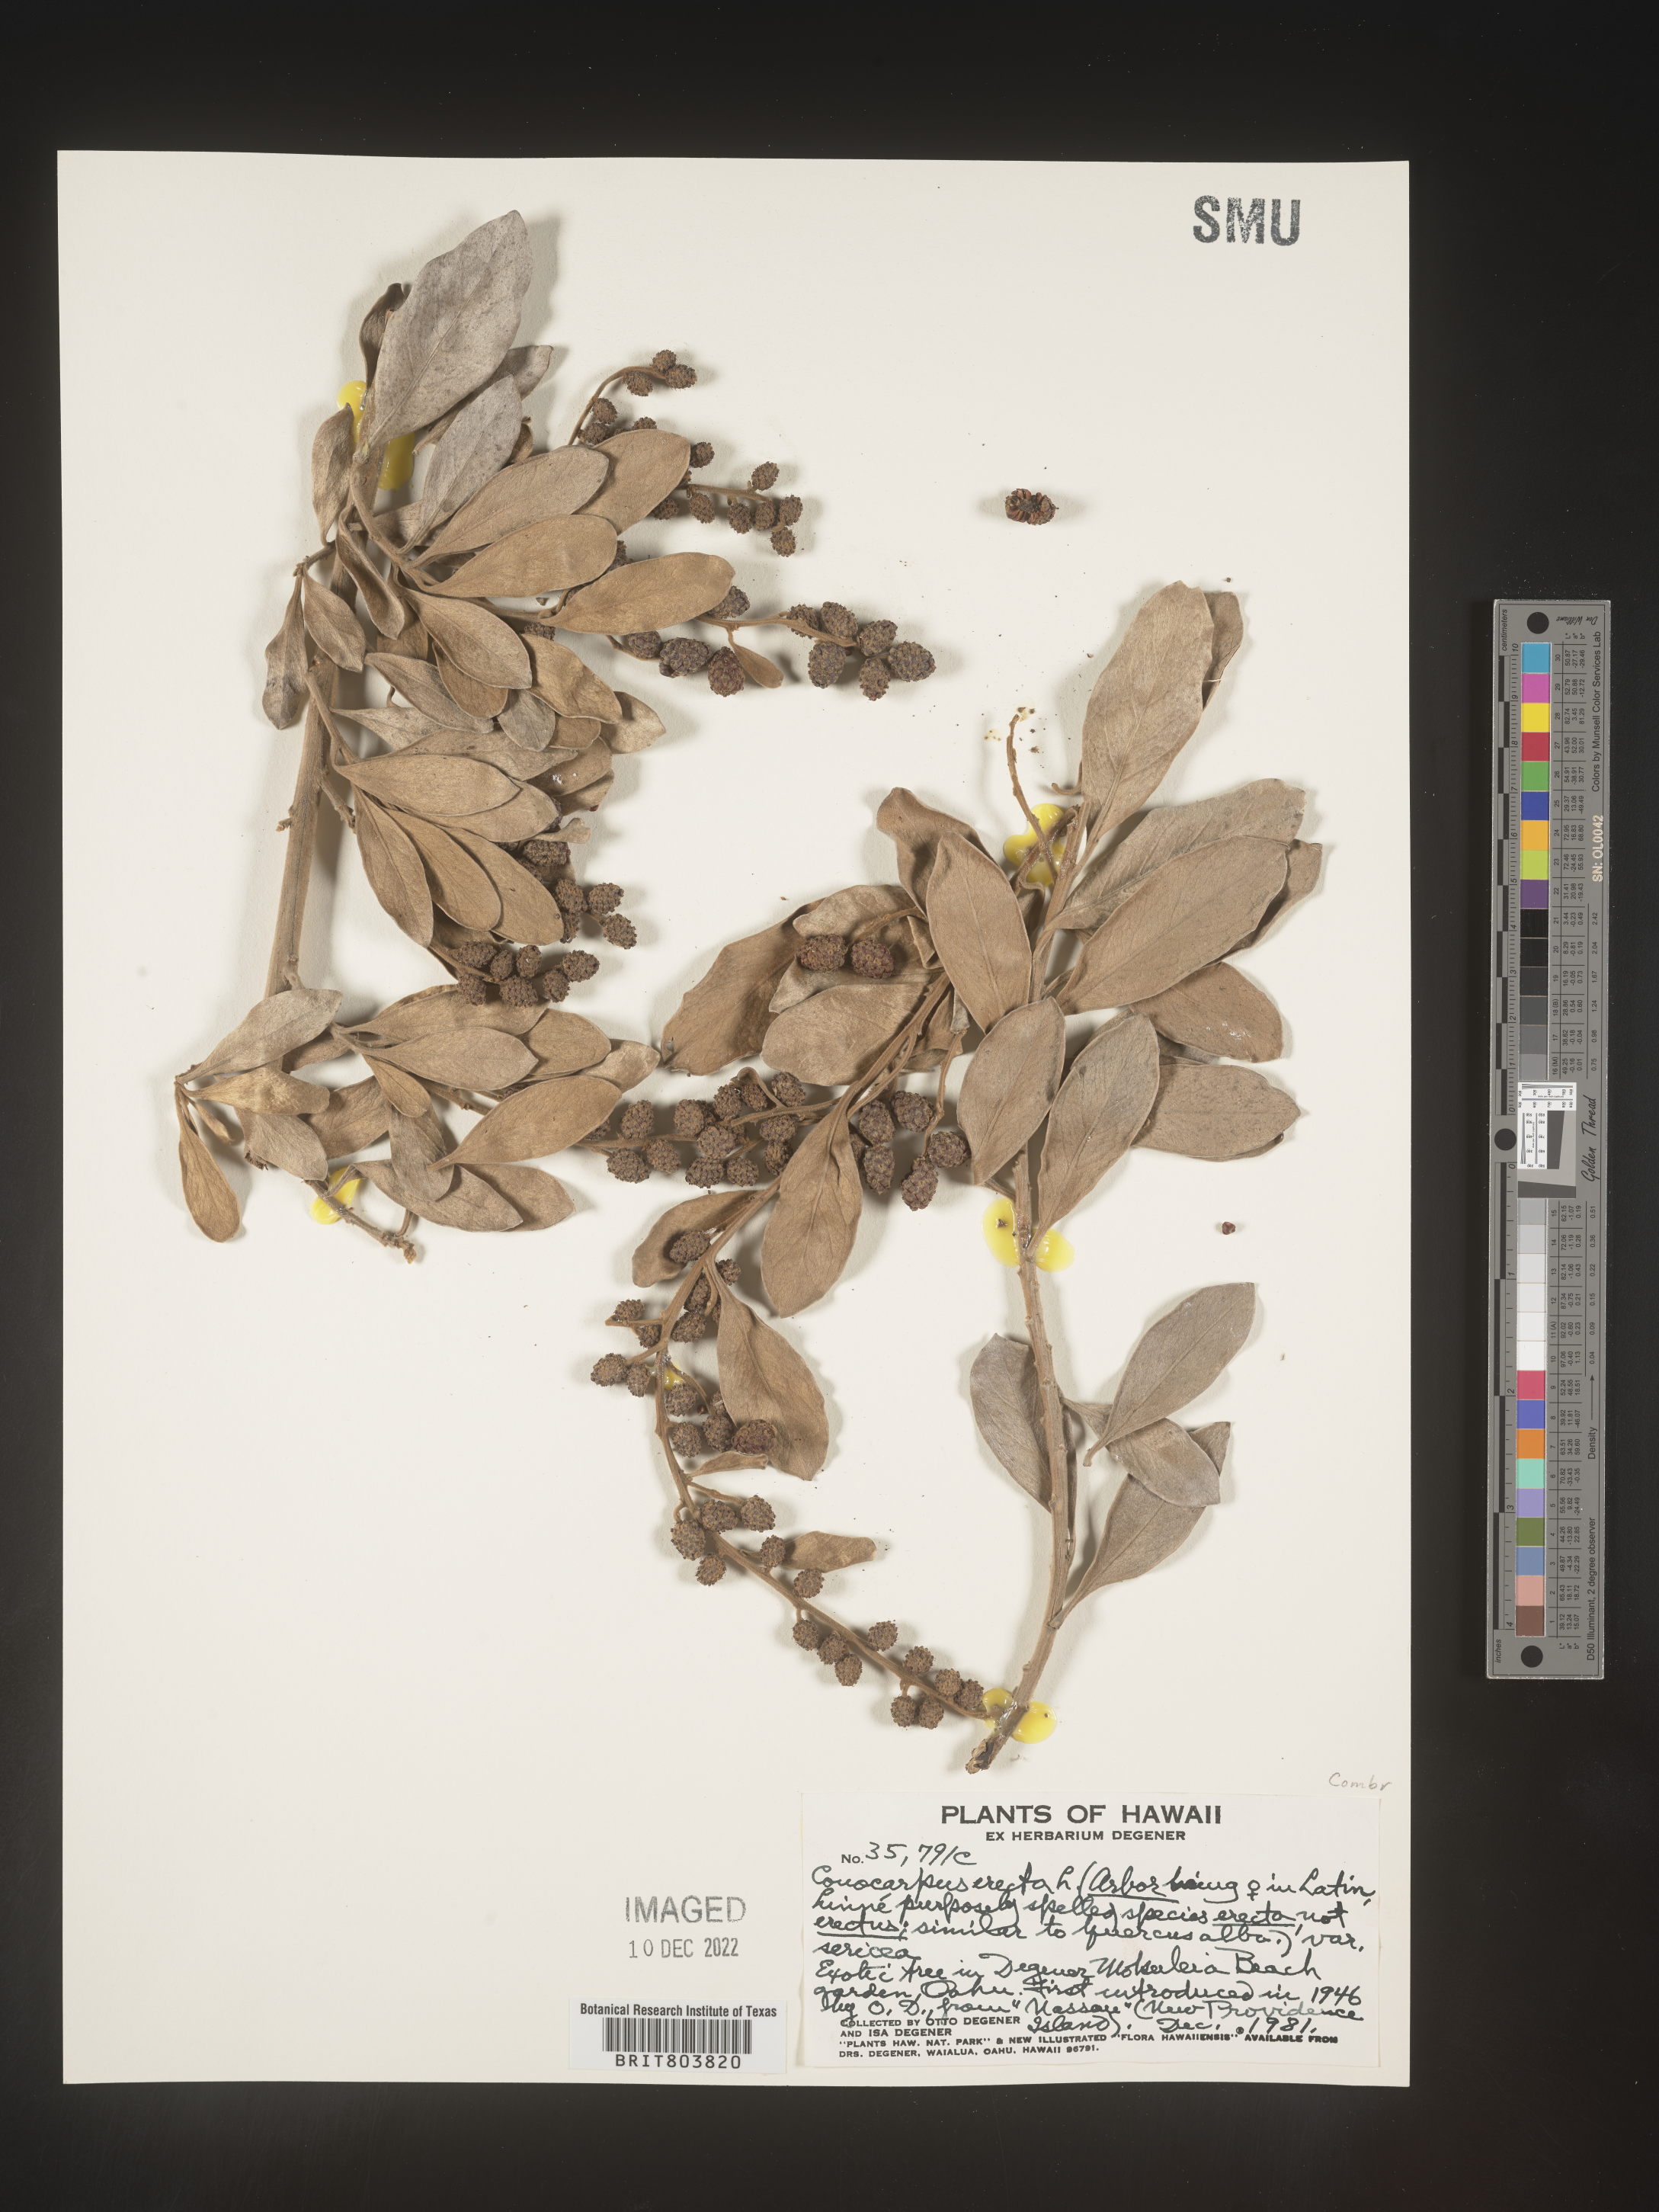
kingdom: Plantae
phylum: Tracheophyta
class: Magnoliopsida
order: Myrtales
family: Combretaceae
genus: Conocarpus
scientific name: Conocarpus
